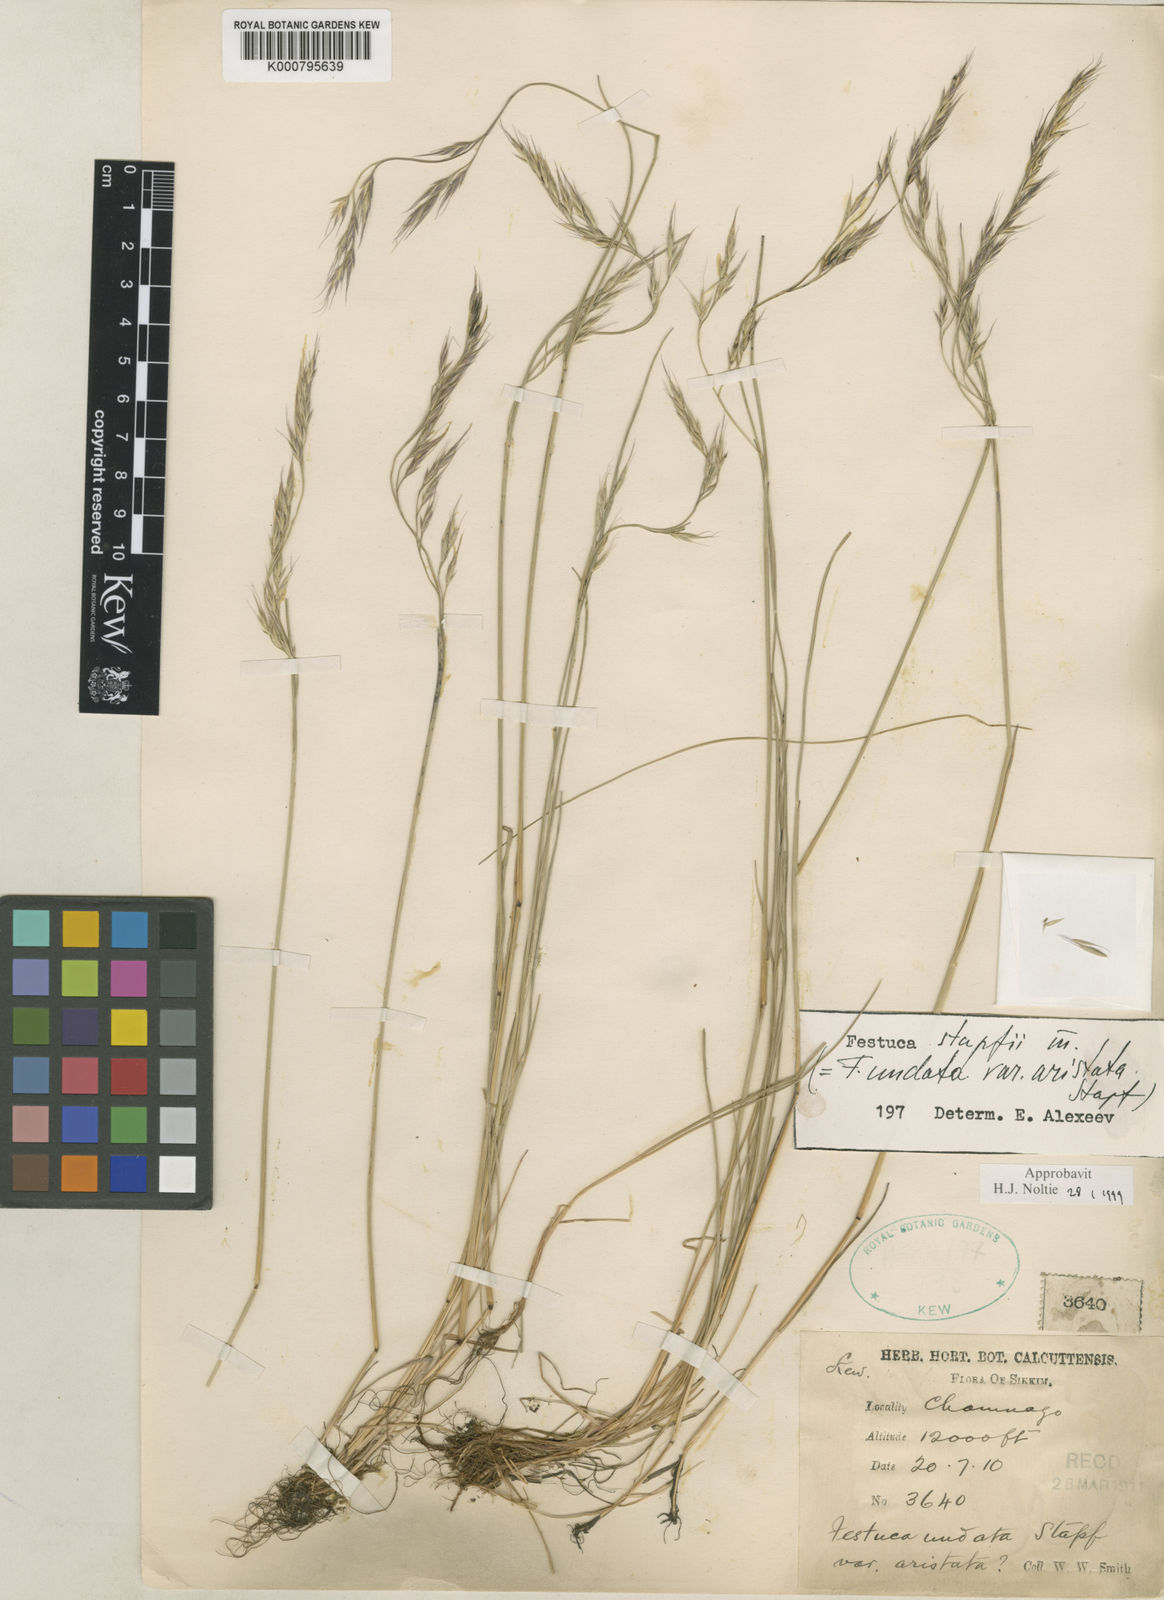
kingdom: Plantae
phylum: Tracheophyta
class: Liliopsida
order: Poales
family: Poaceae
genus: Festuca
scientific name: Festuca undata
